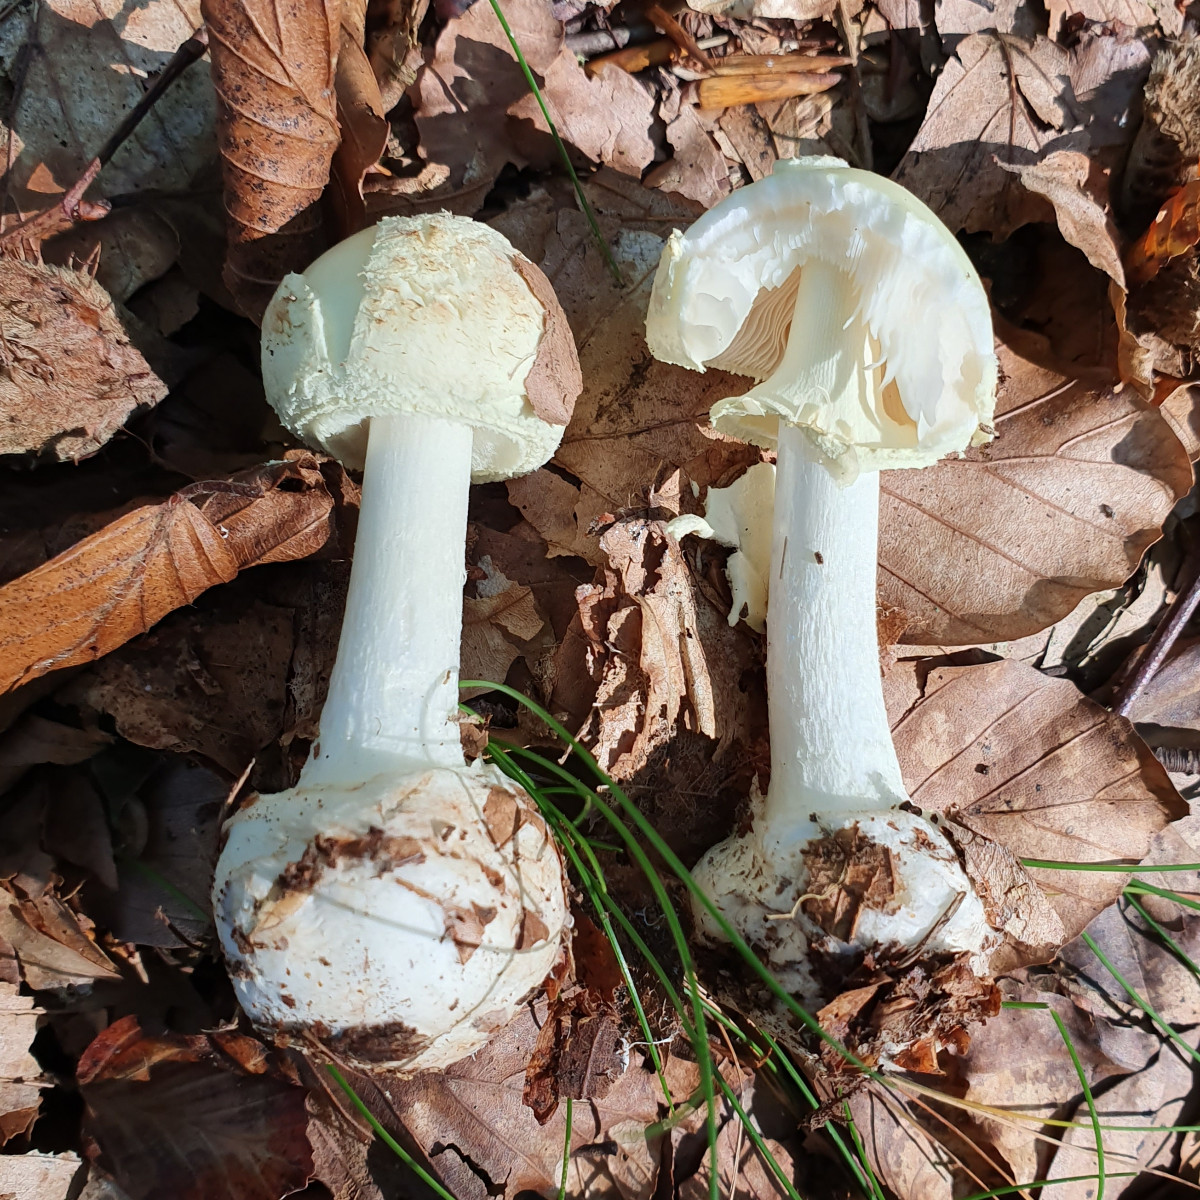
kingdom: Fungi
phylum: Basidiomycota
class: Agaricomycetes
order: Agaricales
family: Amanitaceae
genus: Amanita
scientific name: Amanita citrina
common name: kugleknoldet fluesvamp
